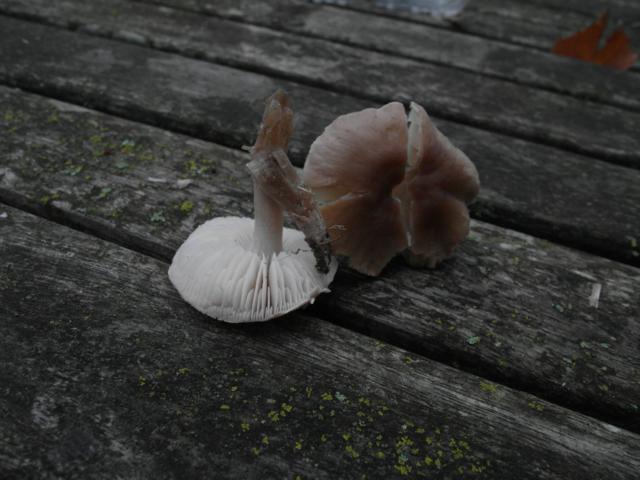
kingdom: Fungi
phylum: Basidiomycota
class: Agaricomycetes
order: Agaricales
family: Tricholomataceae
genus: Dermoloma
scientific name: Dermoloma cuneifolium
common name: eng-nonnehat
